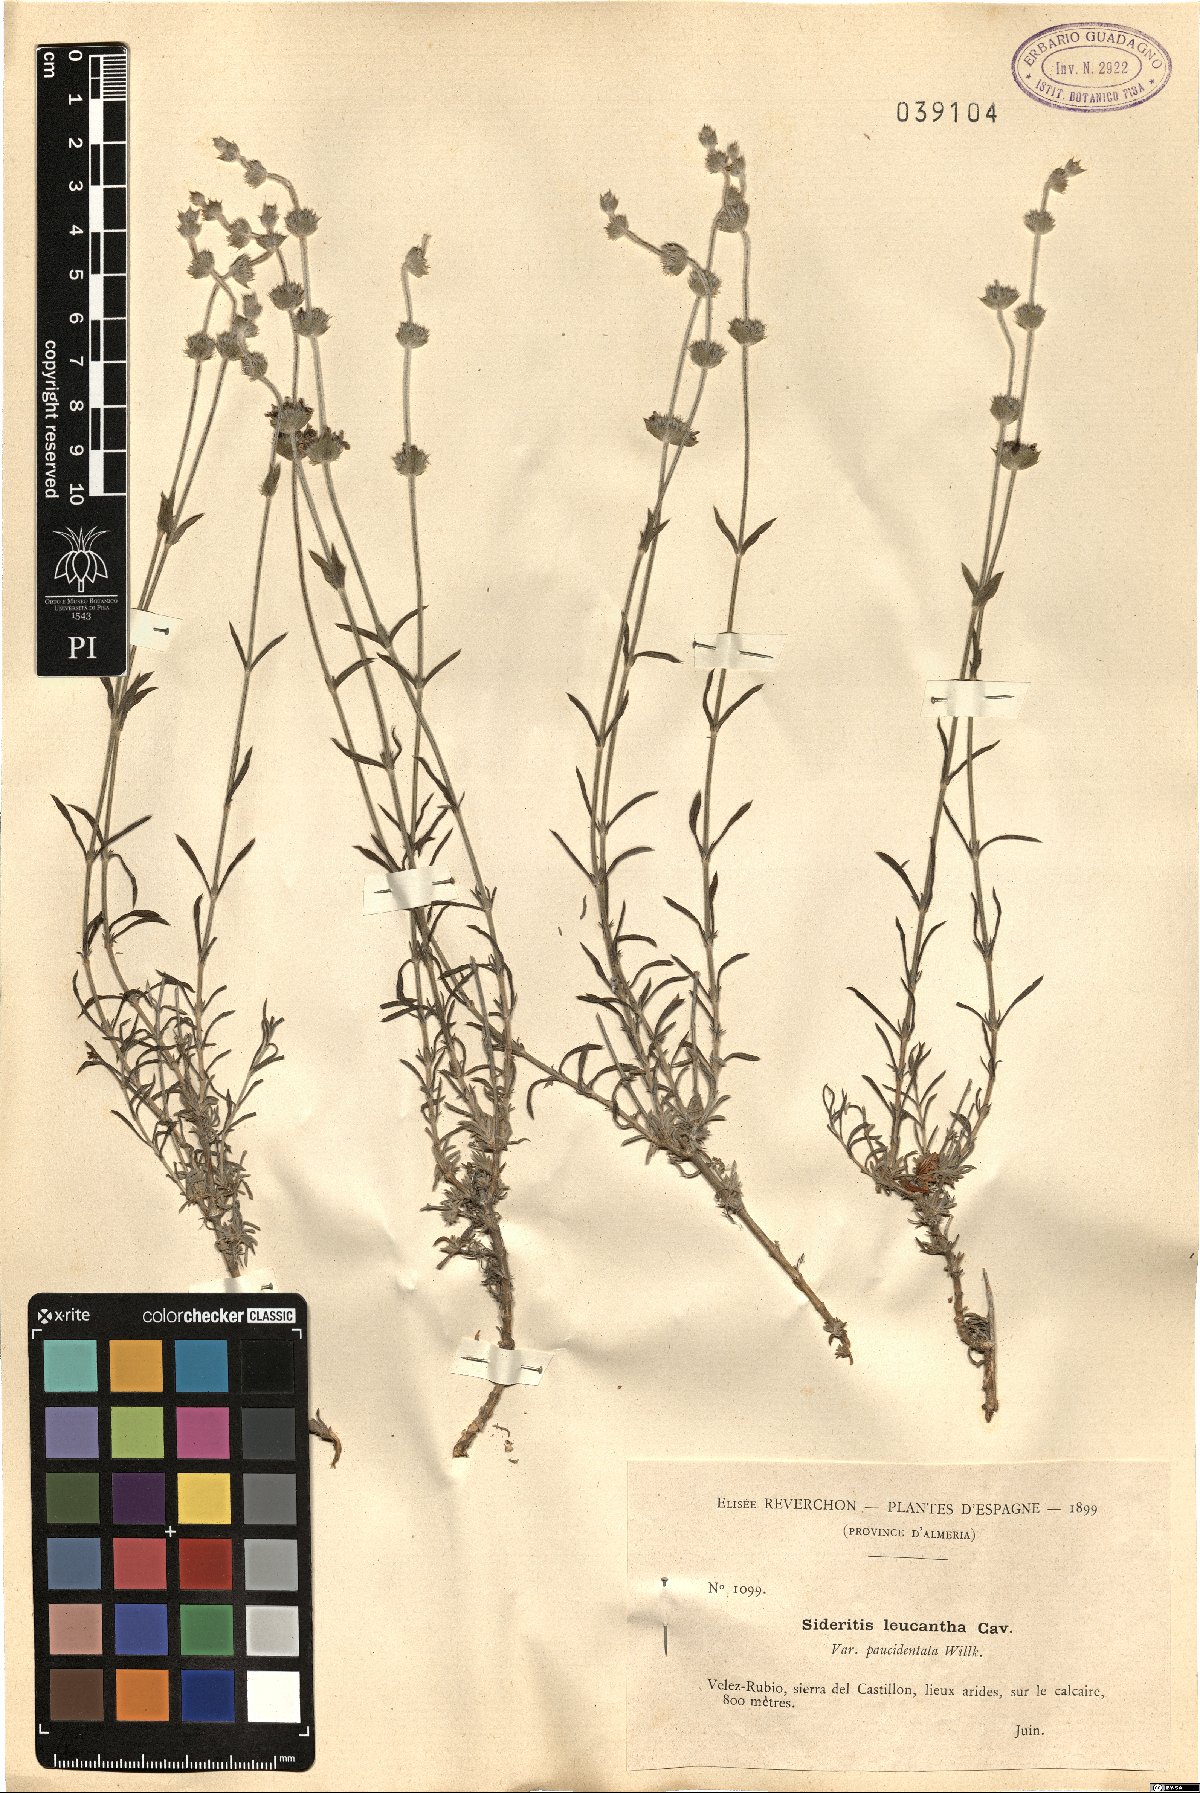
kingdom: Plantae
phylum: Tracheophyta
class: Magnoliopsida
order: Lamiales
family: Lamiaceae
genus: Sideritis
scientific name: Sideritis leucantha
